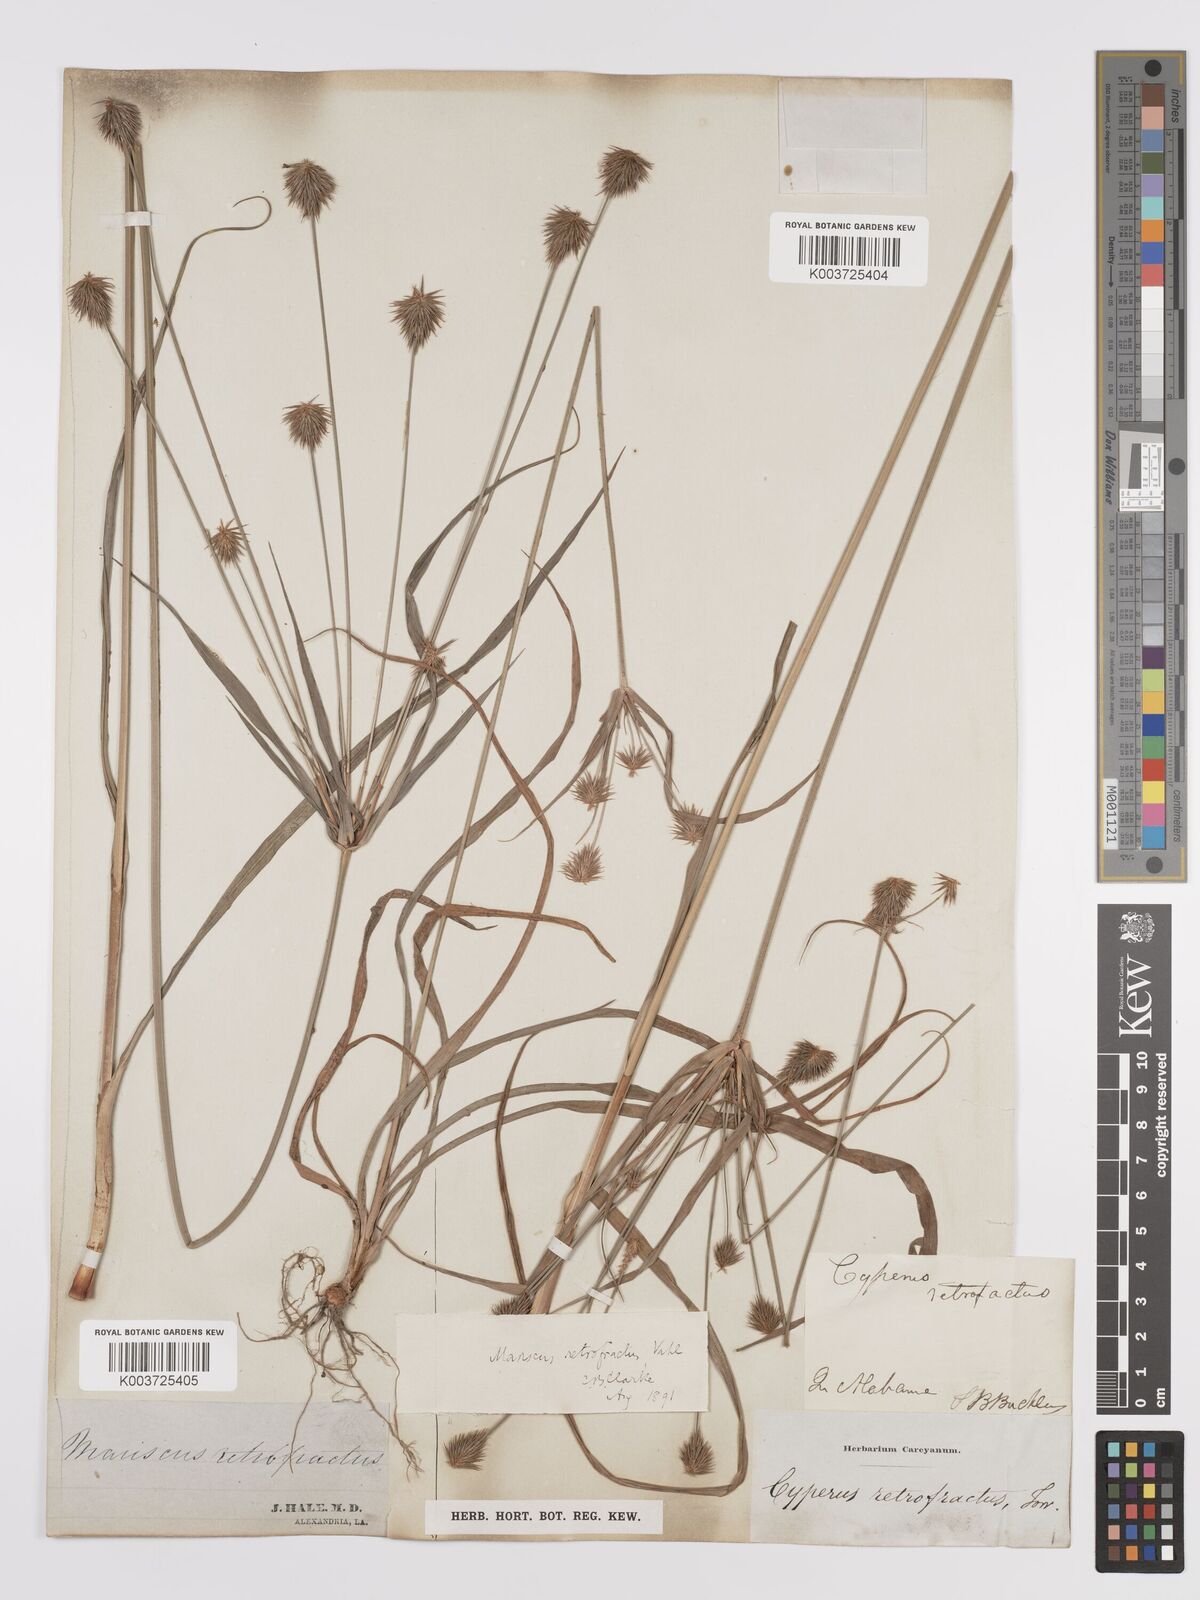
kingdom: Plantae
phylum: Tracheophyta
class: Liliopsida
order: Poales
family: Cyperaceae
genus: Cyperus
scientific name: Cyperus retrofractus
